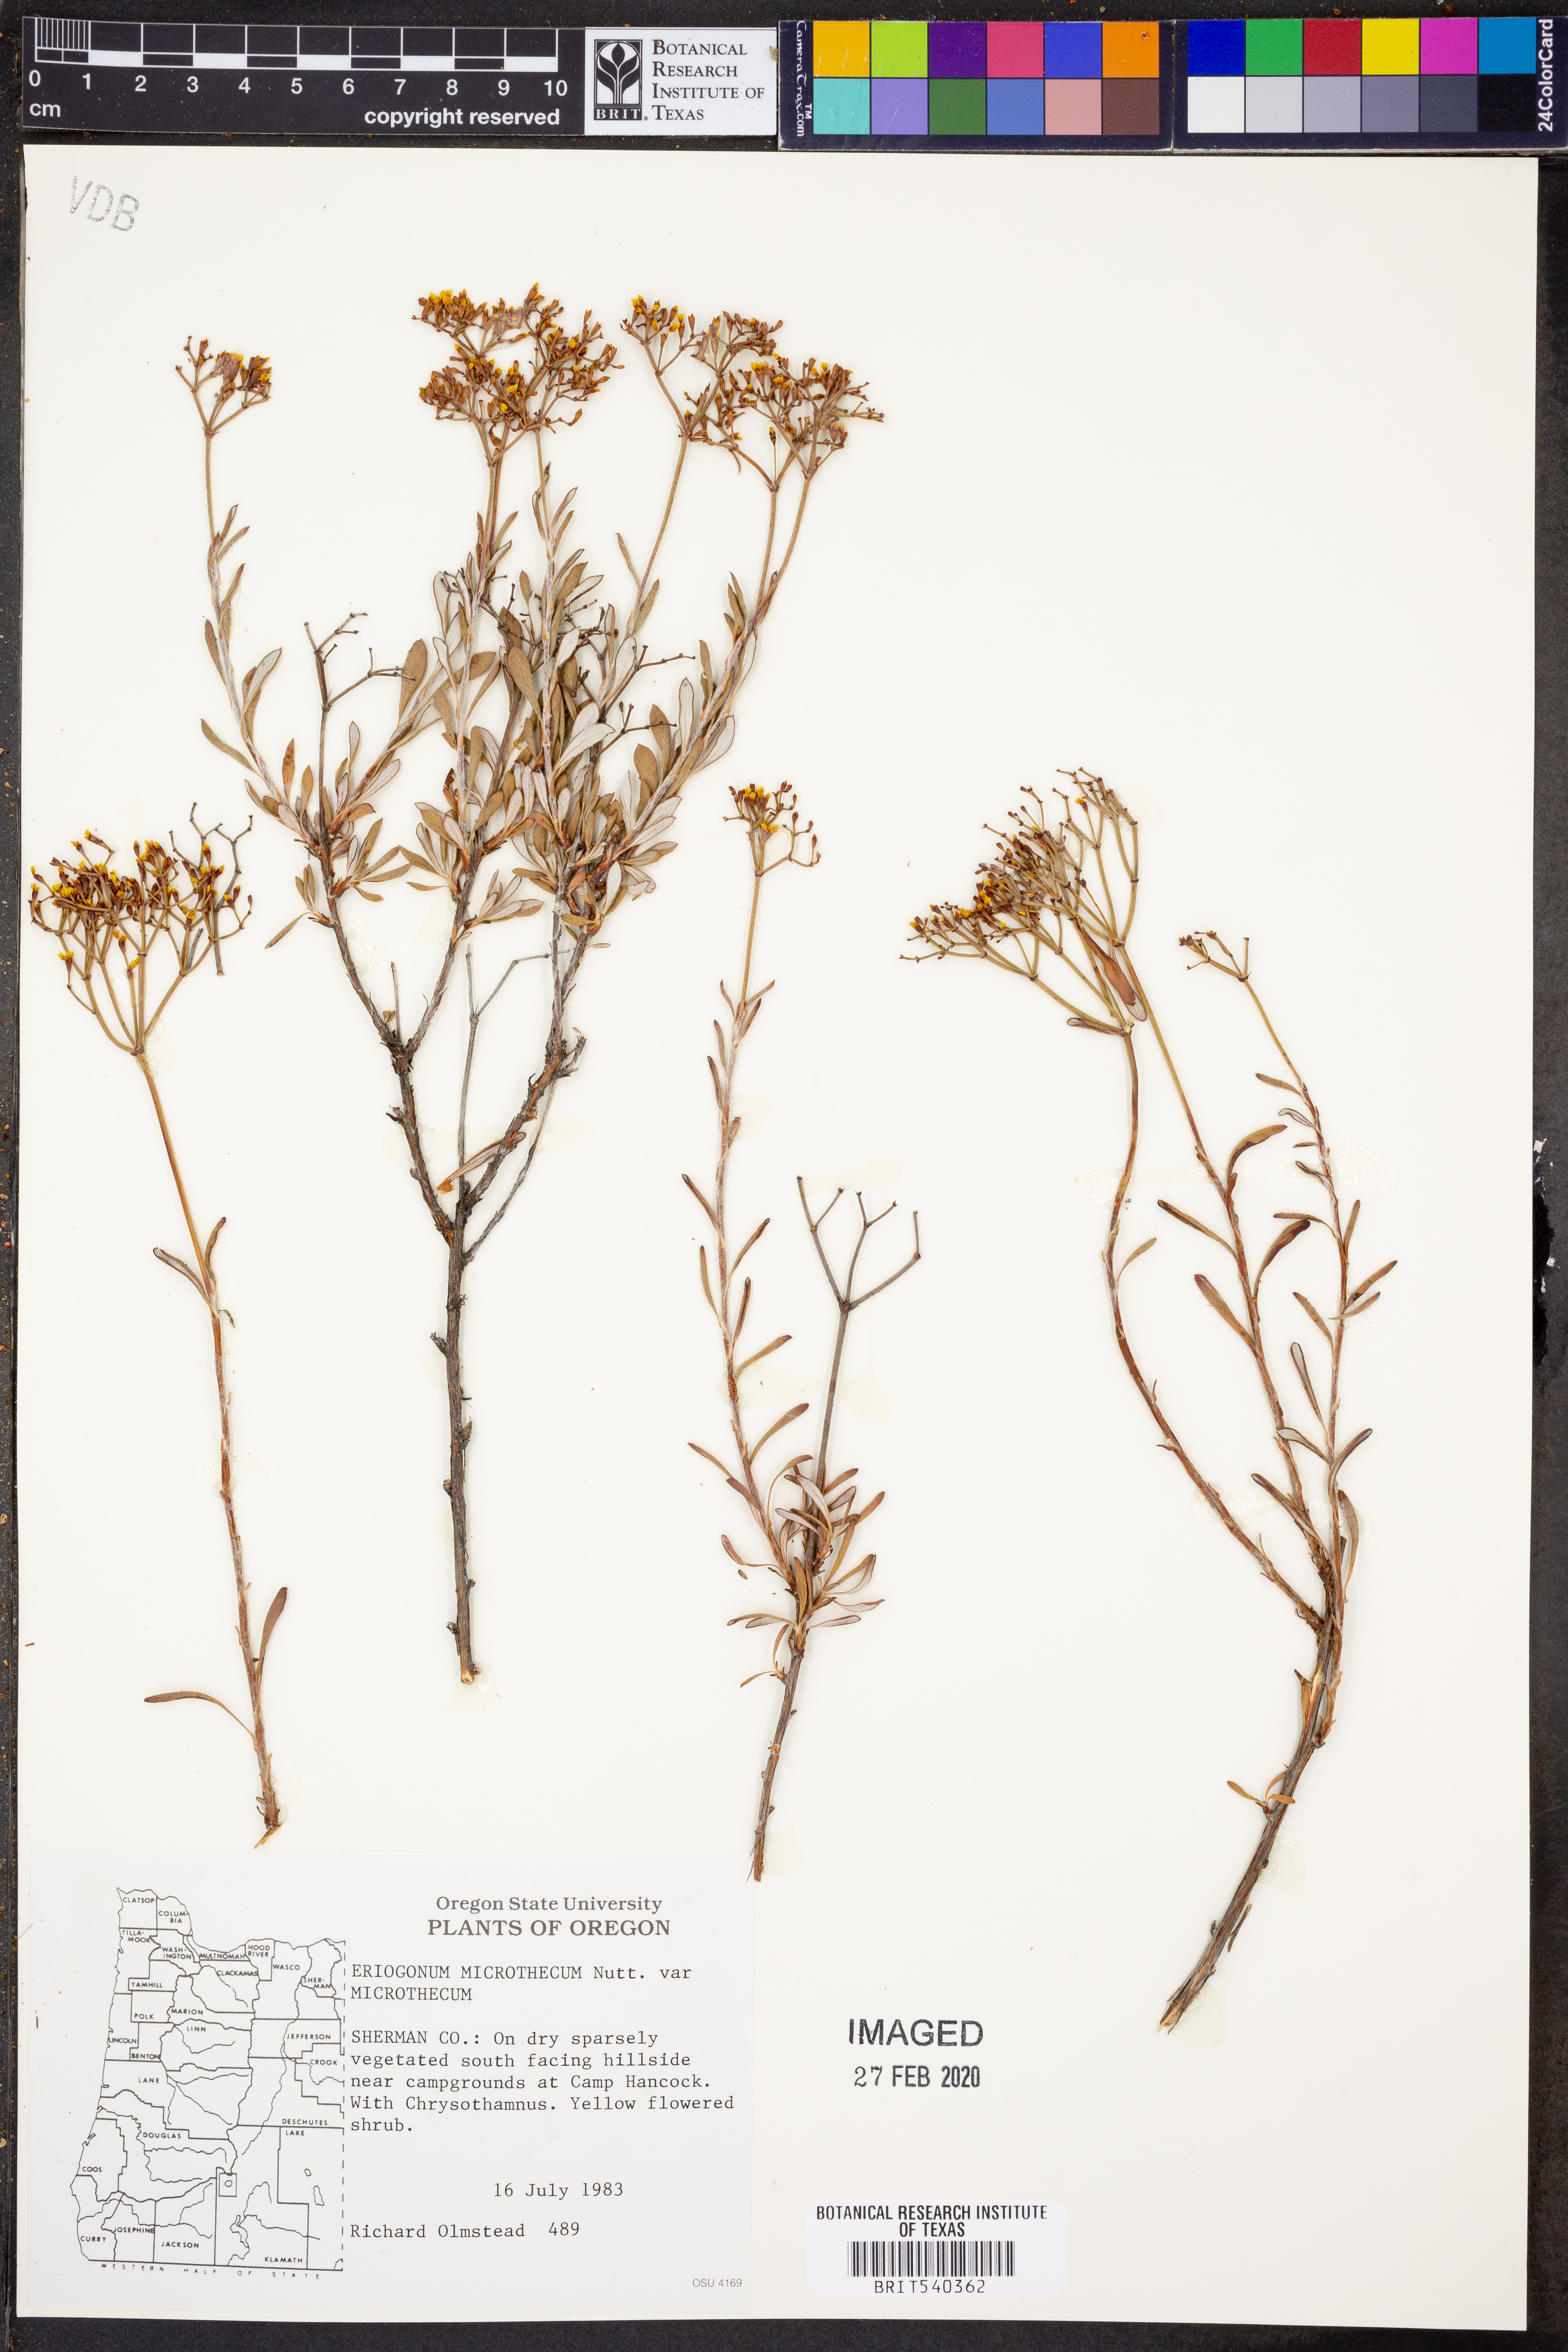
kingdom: Plantae
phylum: Tracheophyta
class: Magnoliopsida
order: Caryophyllales
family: Polygonaceae
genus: Eriogonum
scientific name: Eriogonum microtheca
